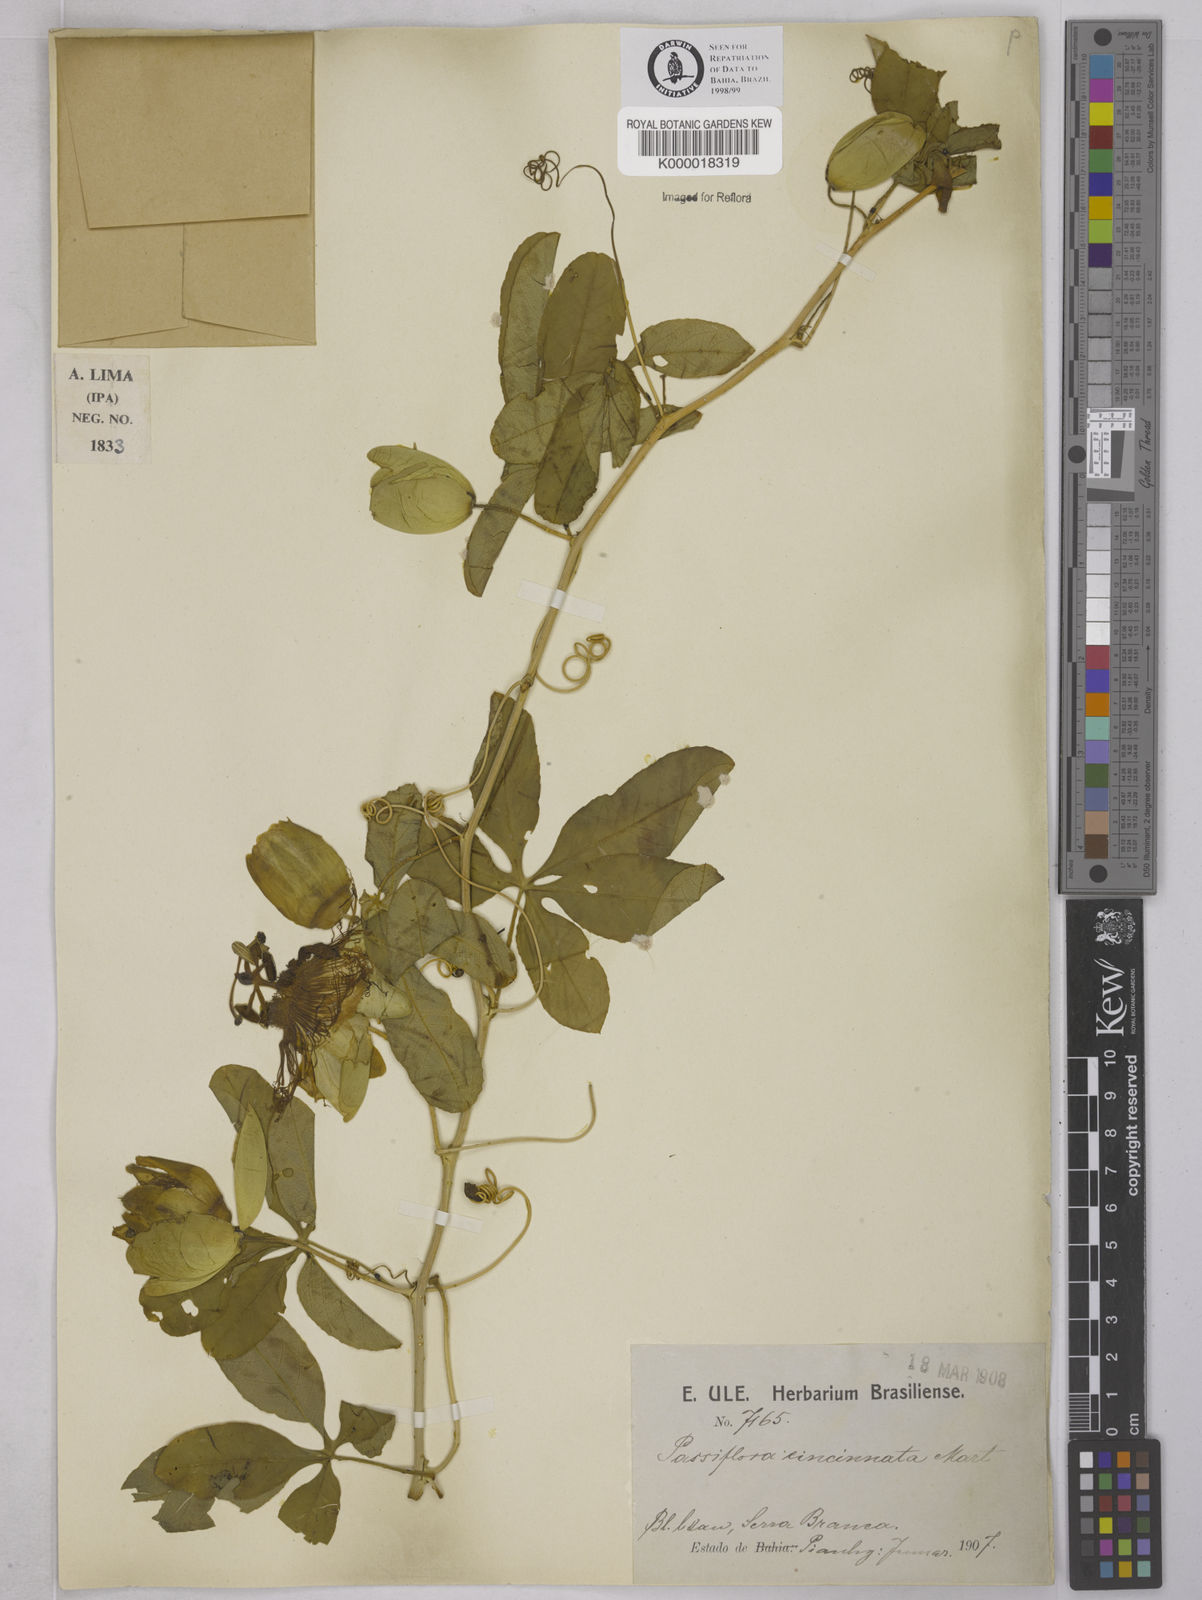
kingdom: Plantae
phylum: Tracheophyta
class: Magnoliopsida
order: Malpighiales
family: Passifloraceae
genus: Passiflora
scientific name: Passiflora cincinnata
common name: Crato passionvine
